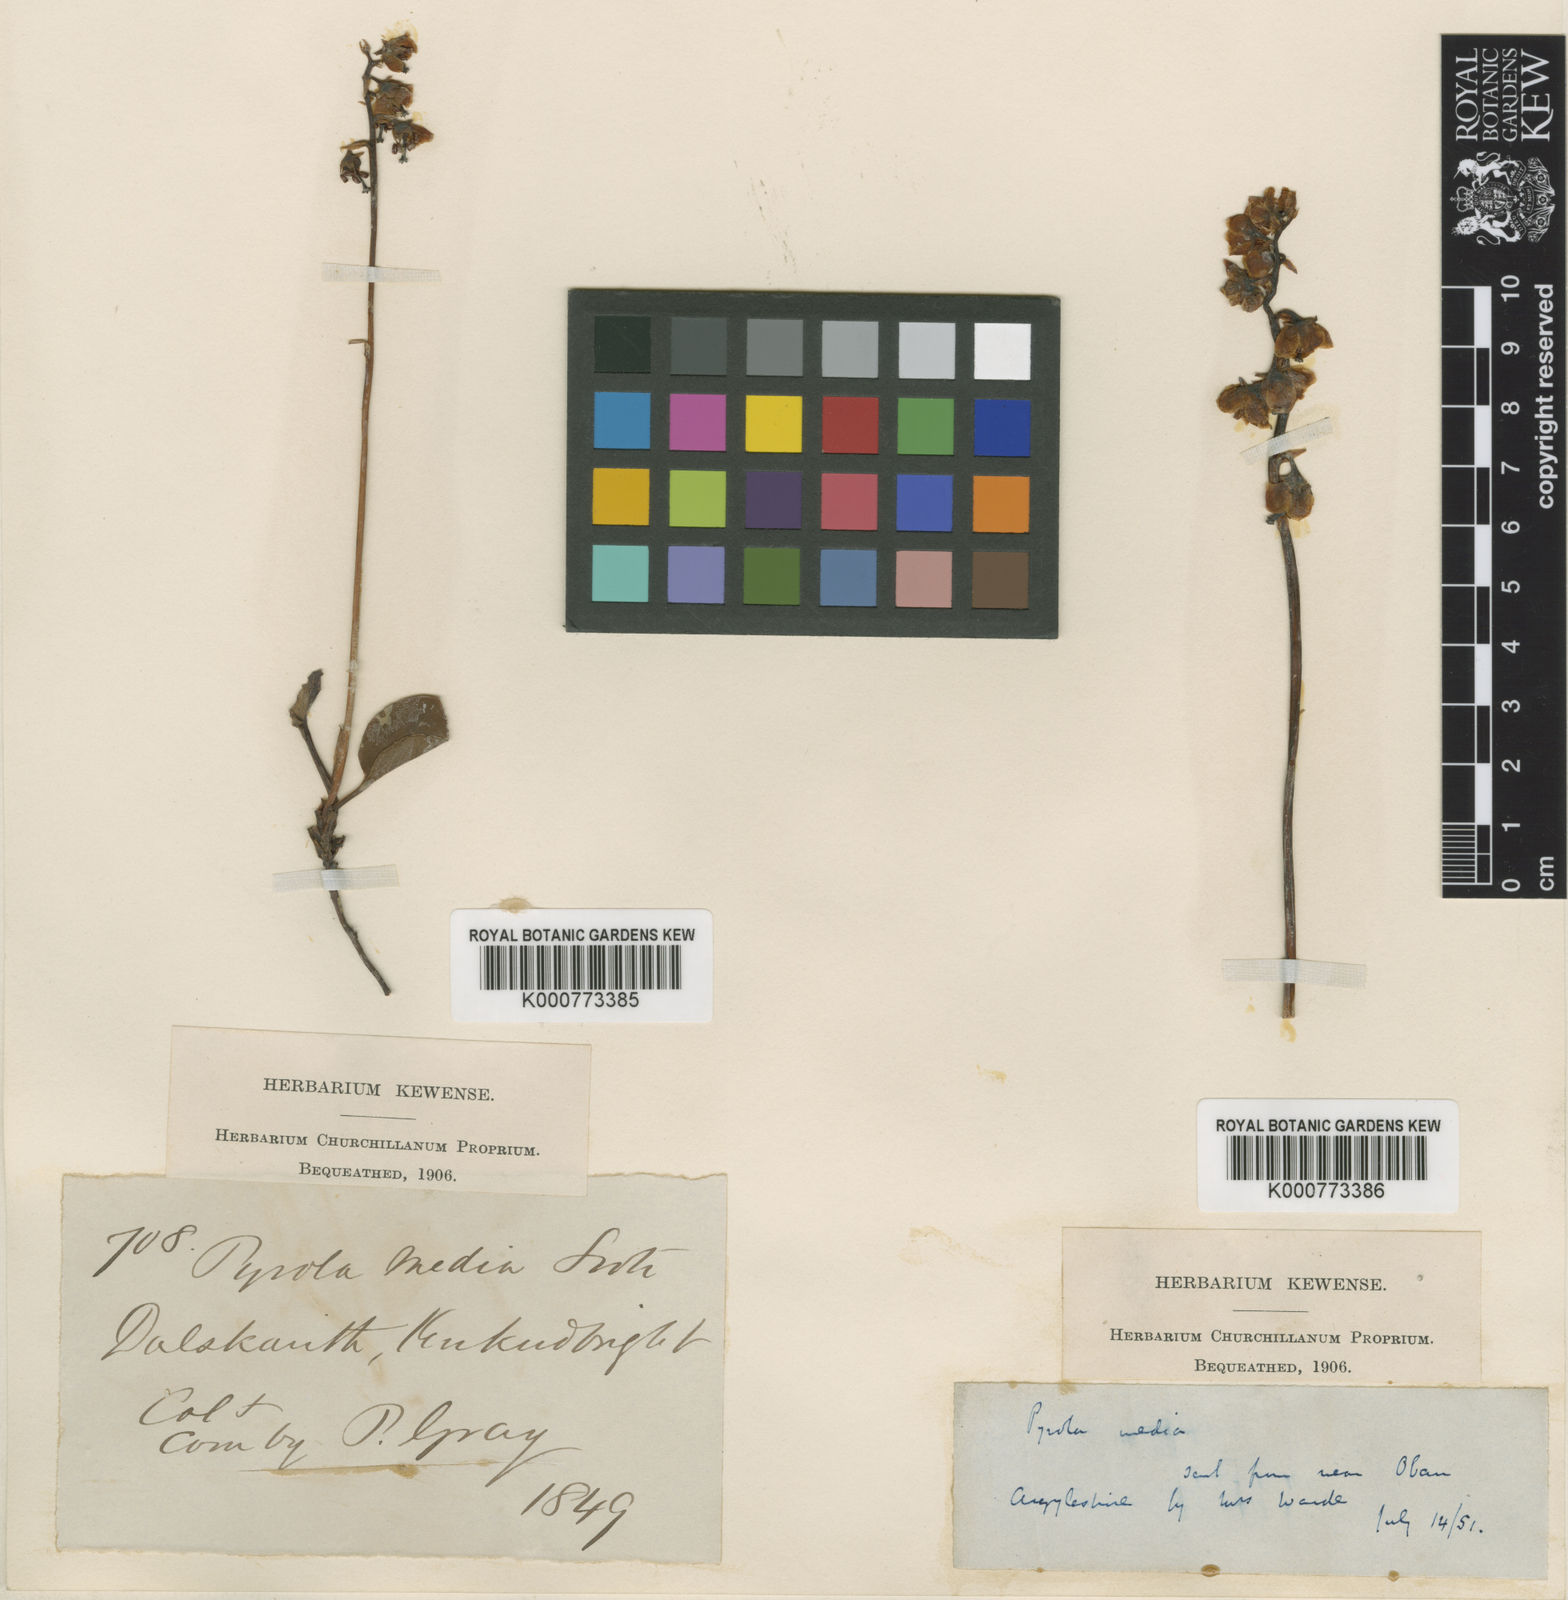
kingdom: Plantae
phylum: Tracheophyta
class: Magnoliopsida
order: Ericales
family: Ericaceae
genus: Pyrola
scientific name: Pyrola media
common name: Intermediate wintergreen
